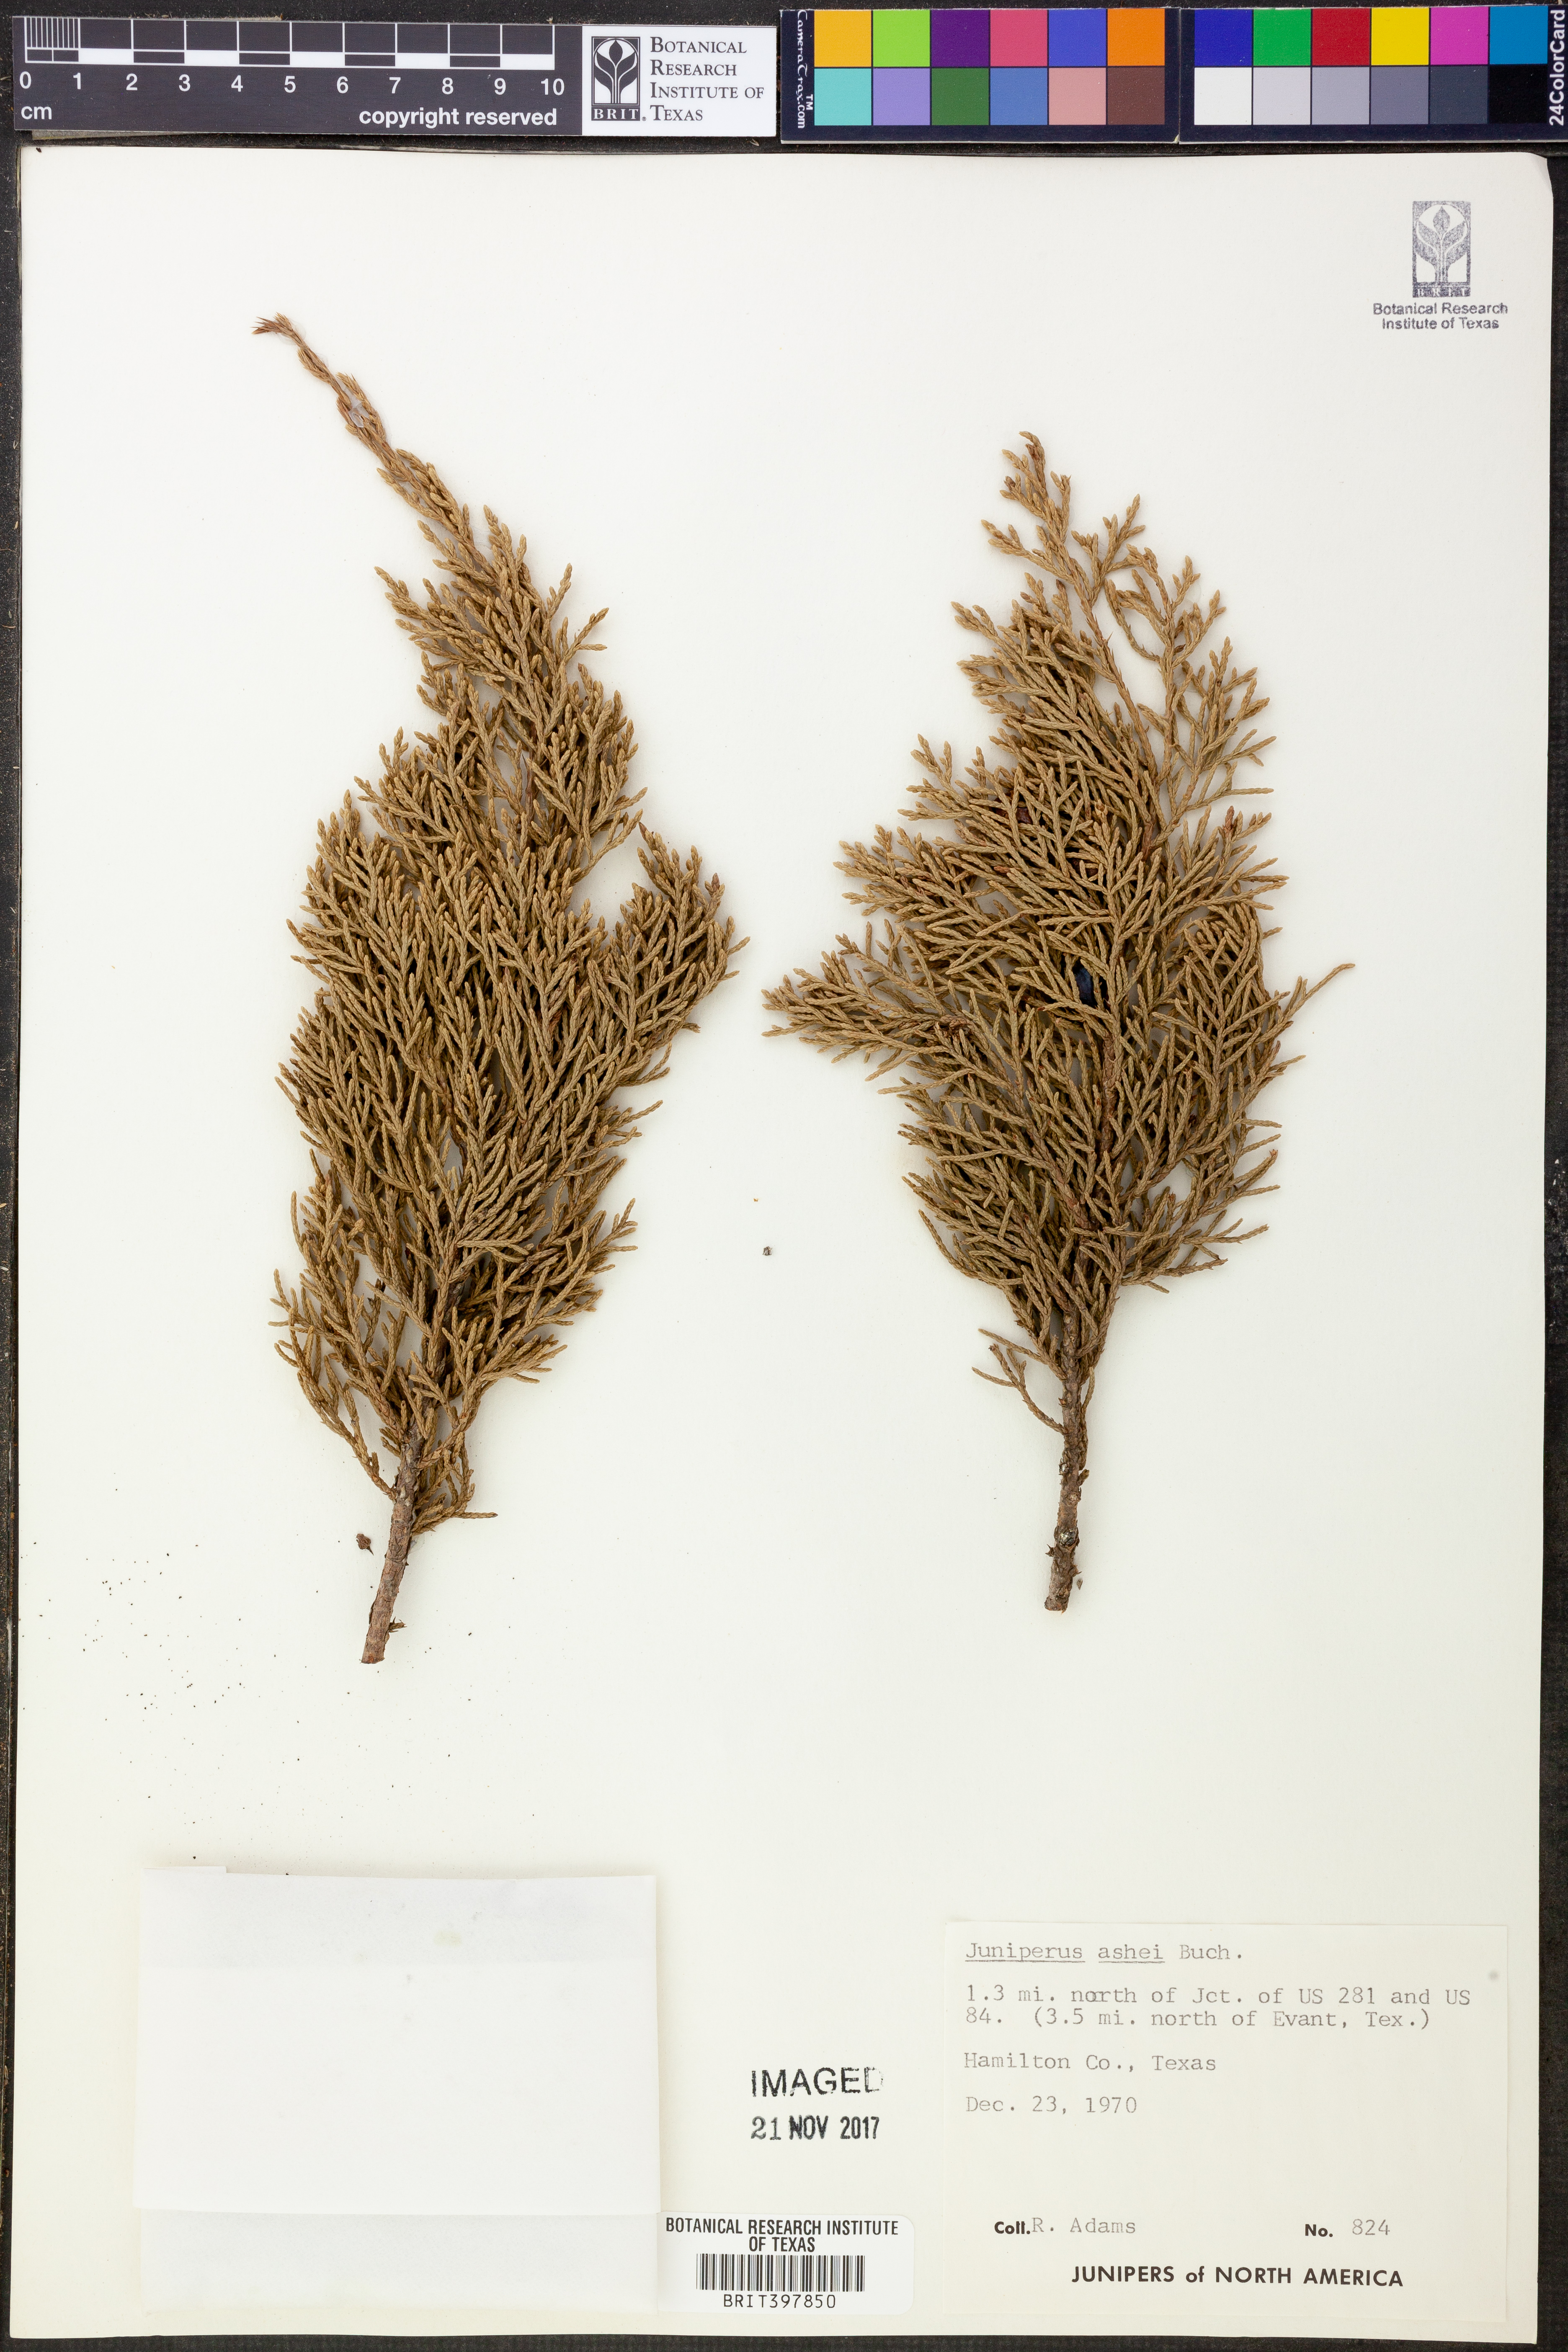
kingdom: Plantae
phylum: Tracheophyta
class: Pinopsida
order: Pinales
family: Cupressaceae
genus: Juniperus
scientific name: Juniperus ashei
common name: Mexican juniper
